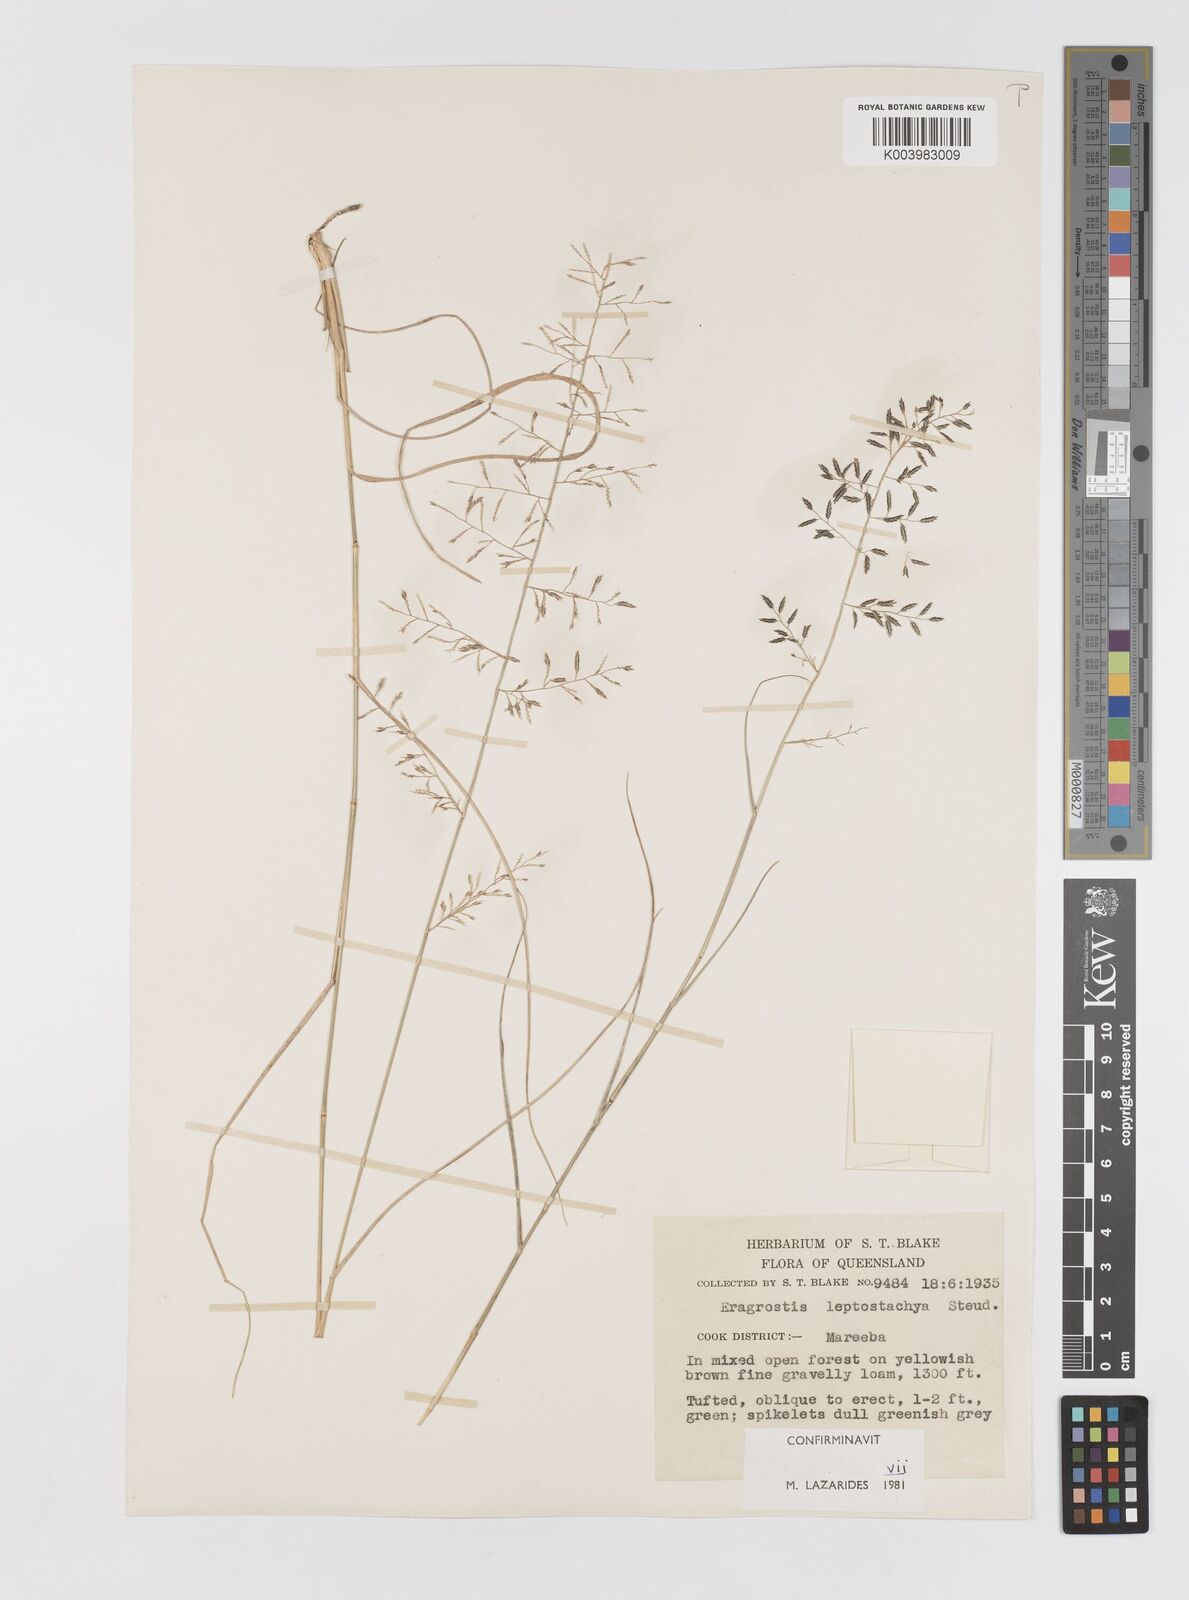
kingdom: Plantae
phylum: Tracheophyta
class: Liliopsida
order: Poales
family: Poaceae
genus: Eragrostis
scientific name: Eragrostis leptostachya
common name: Australian lovegrass
